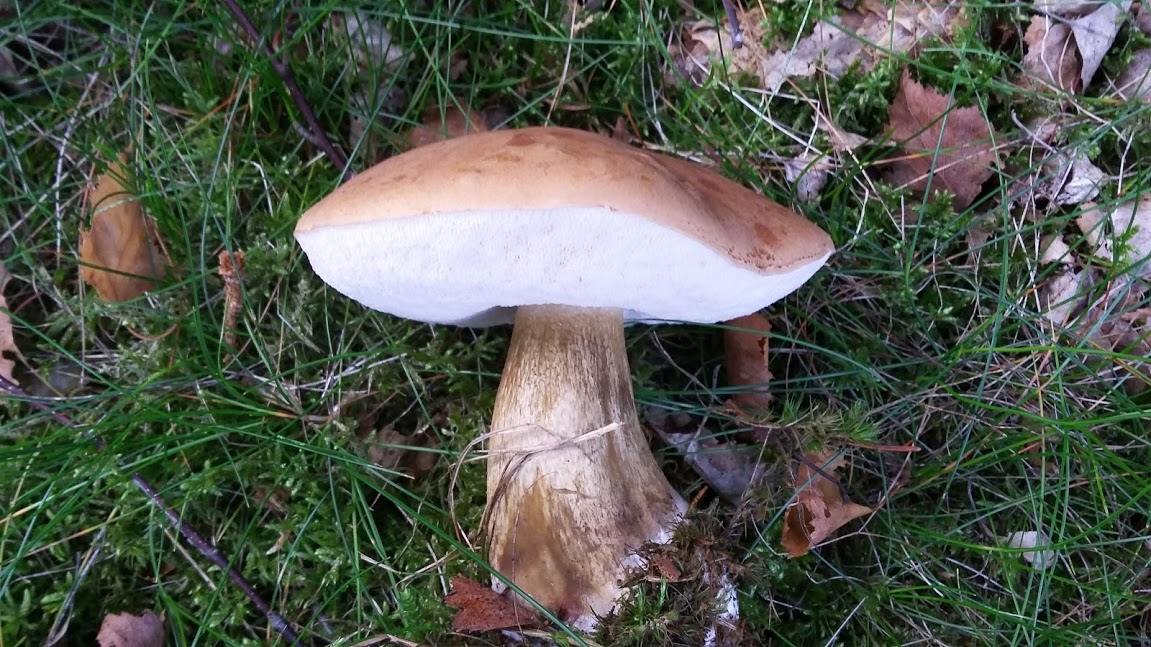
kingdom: Fungi
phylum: Basidiomycota
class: Agaricomycetes
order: Boletales
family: Boletaceae
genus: Tylopilus
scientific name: Tylopilus felleus
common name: galderørhat
